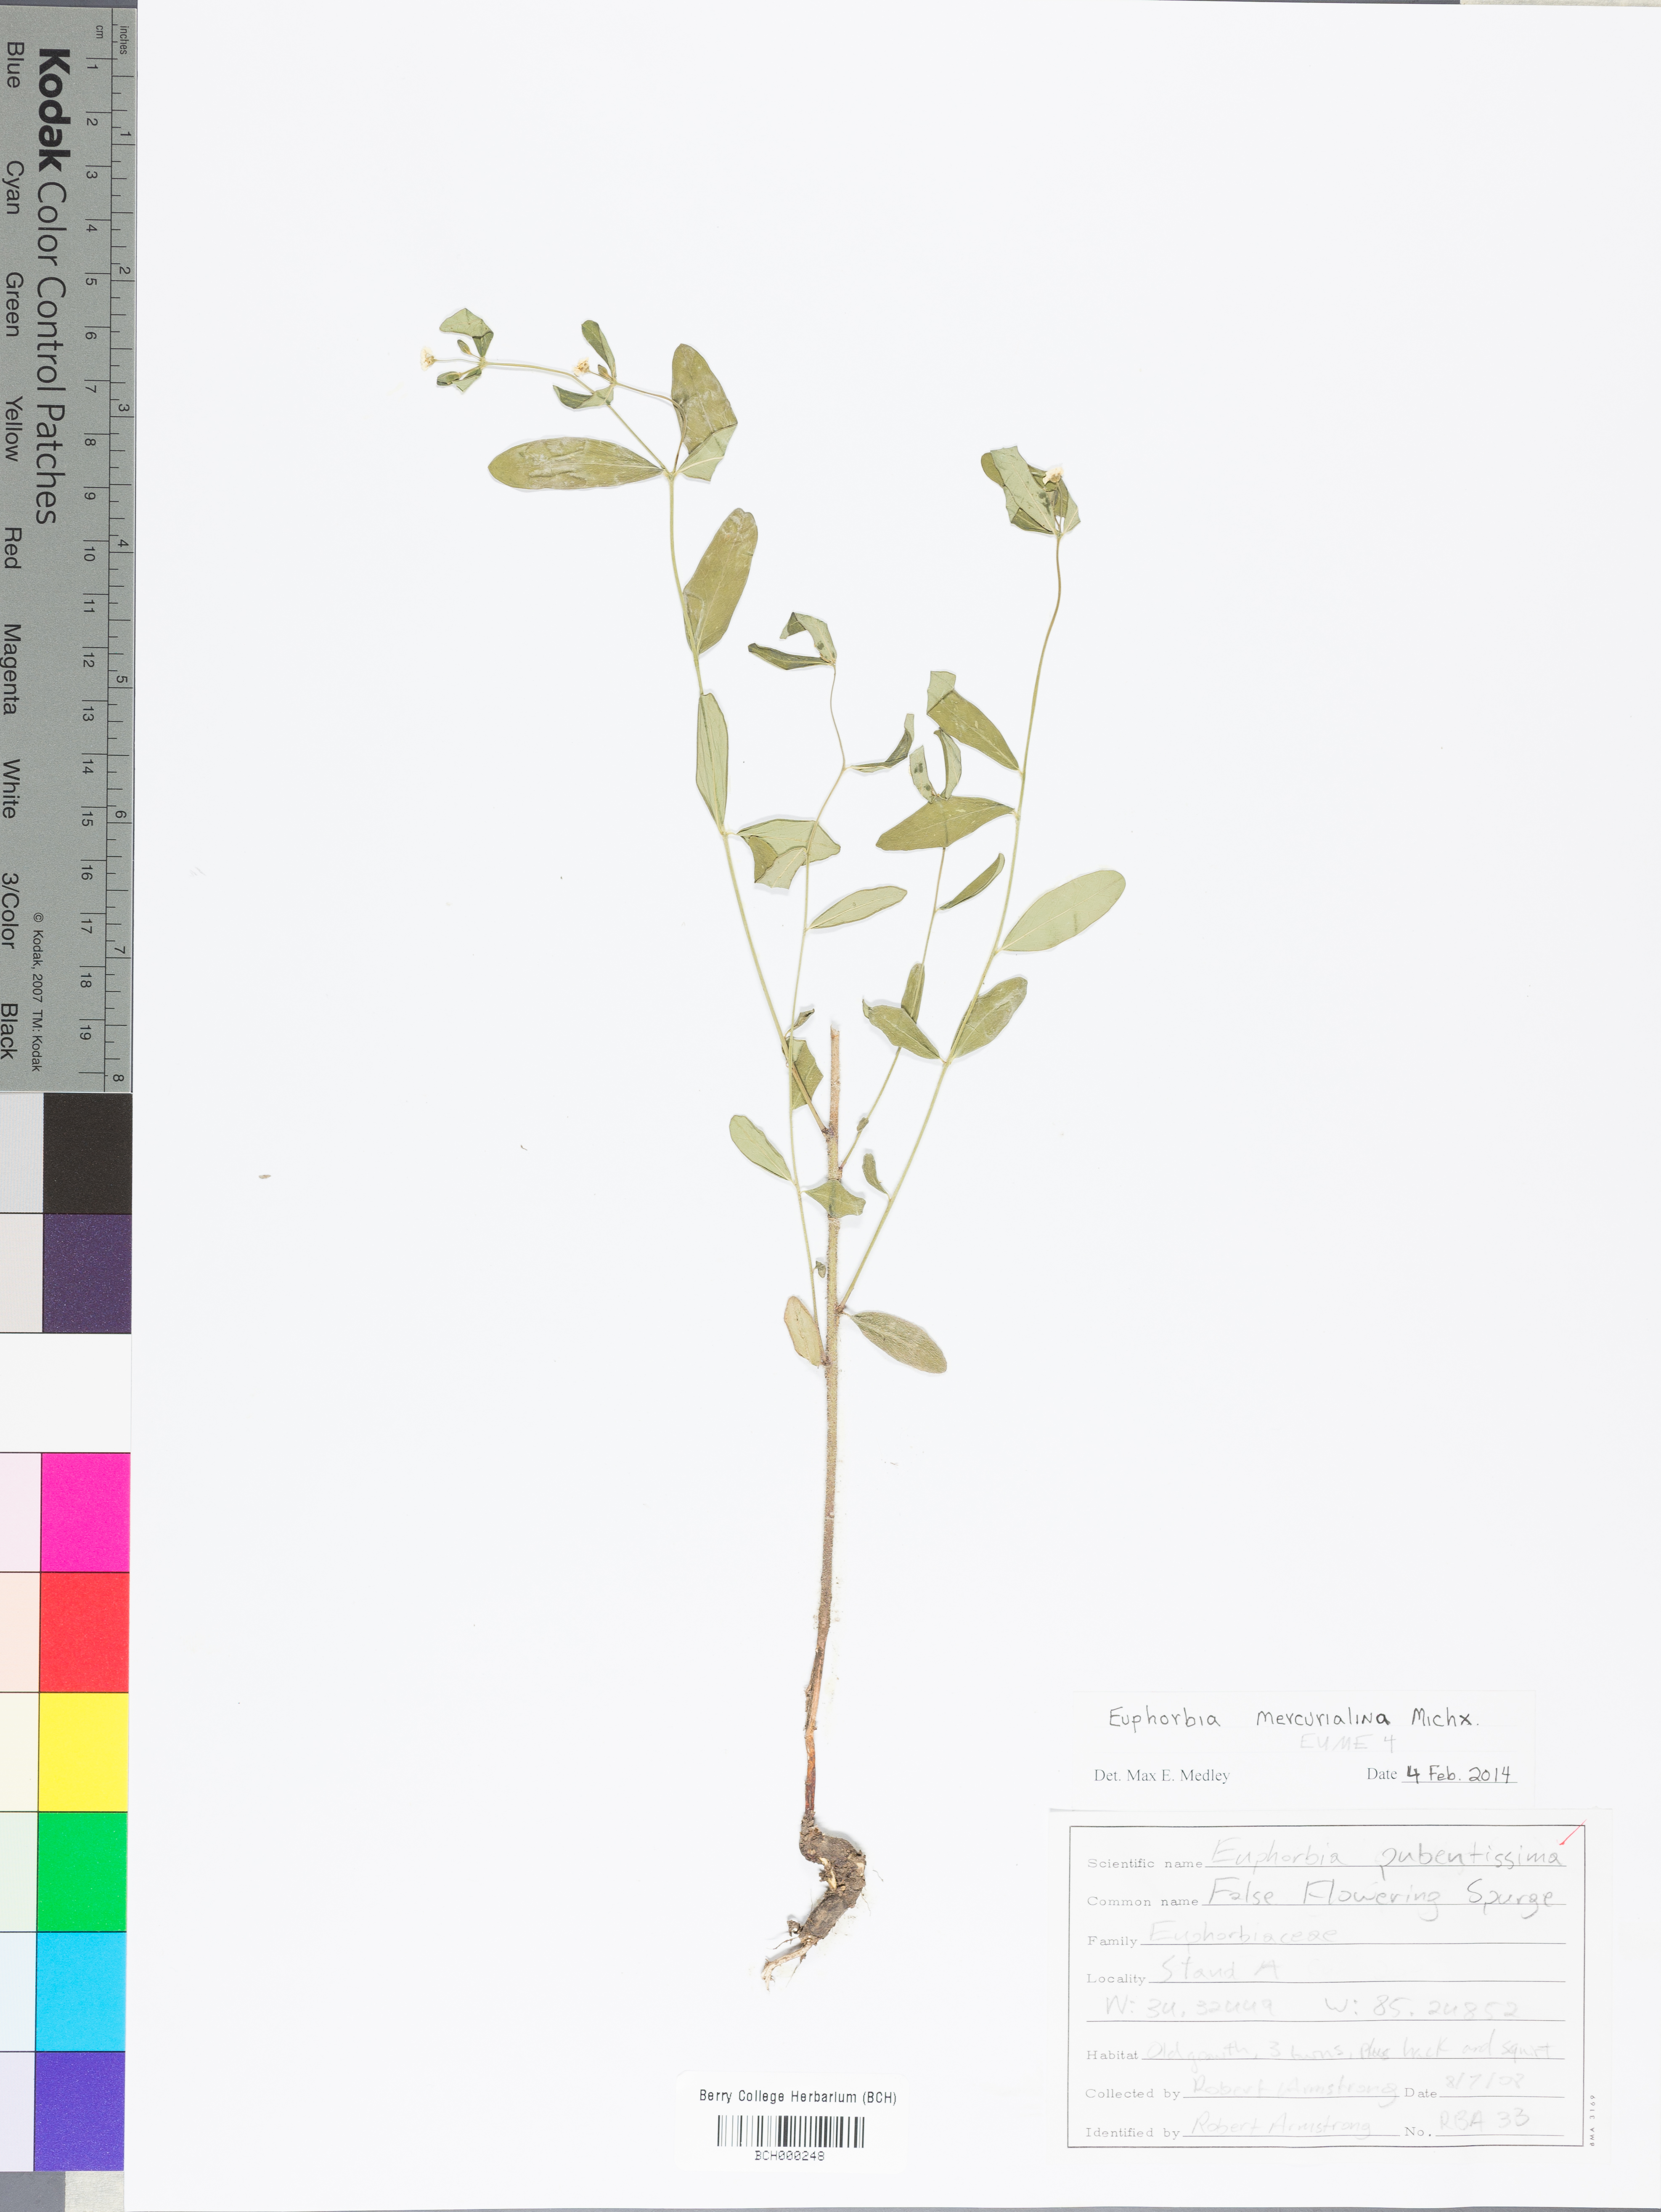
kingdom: Plantae
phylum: Tracheophyta
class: Magnoliopsida
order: Malpighiales
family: Euphorbiaceae
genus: Euphorbia
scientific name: Euphorbia mercurialina
